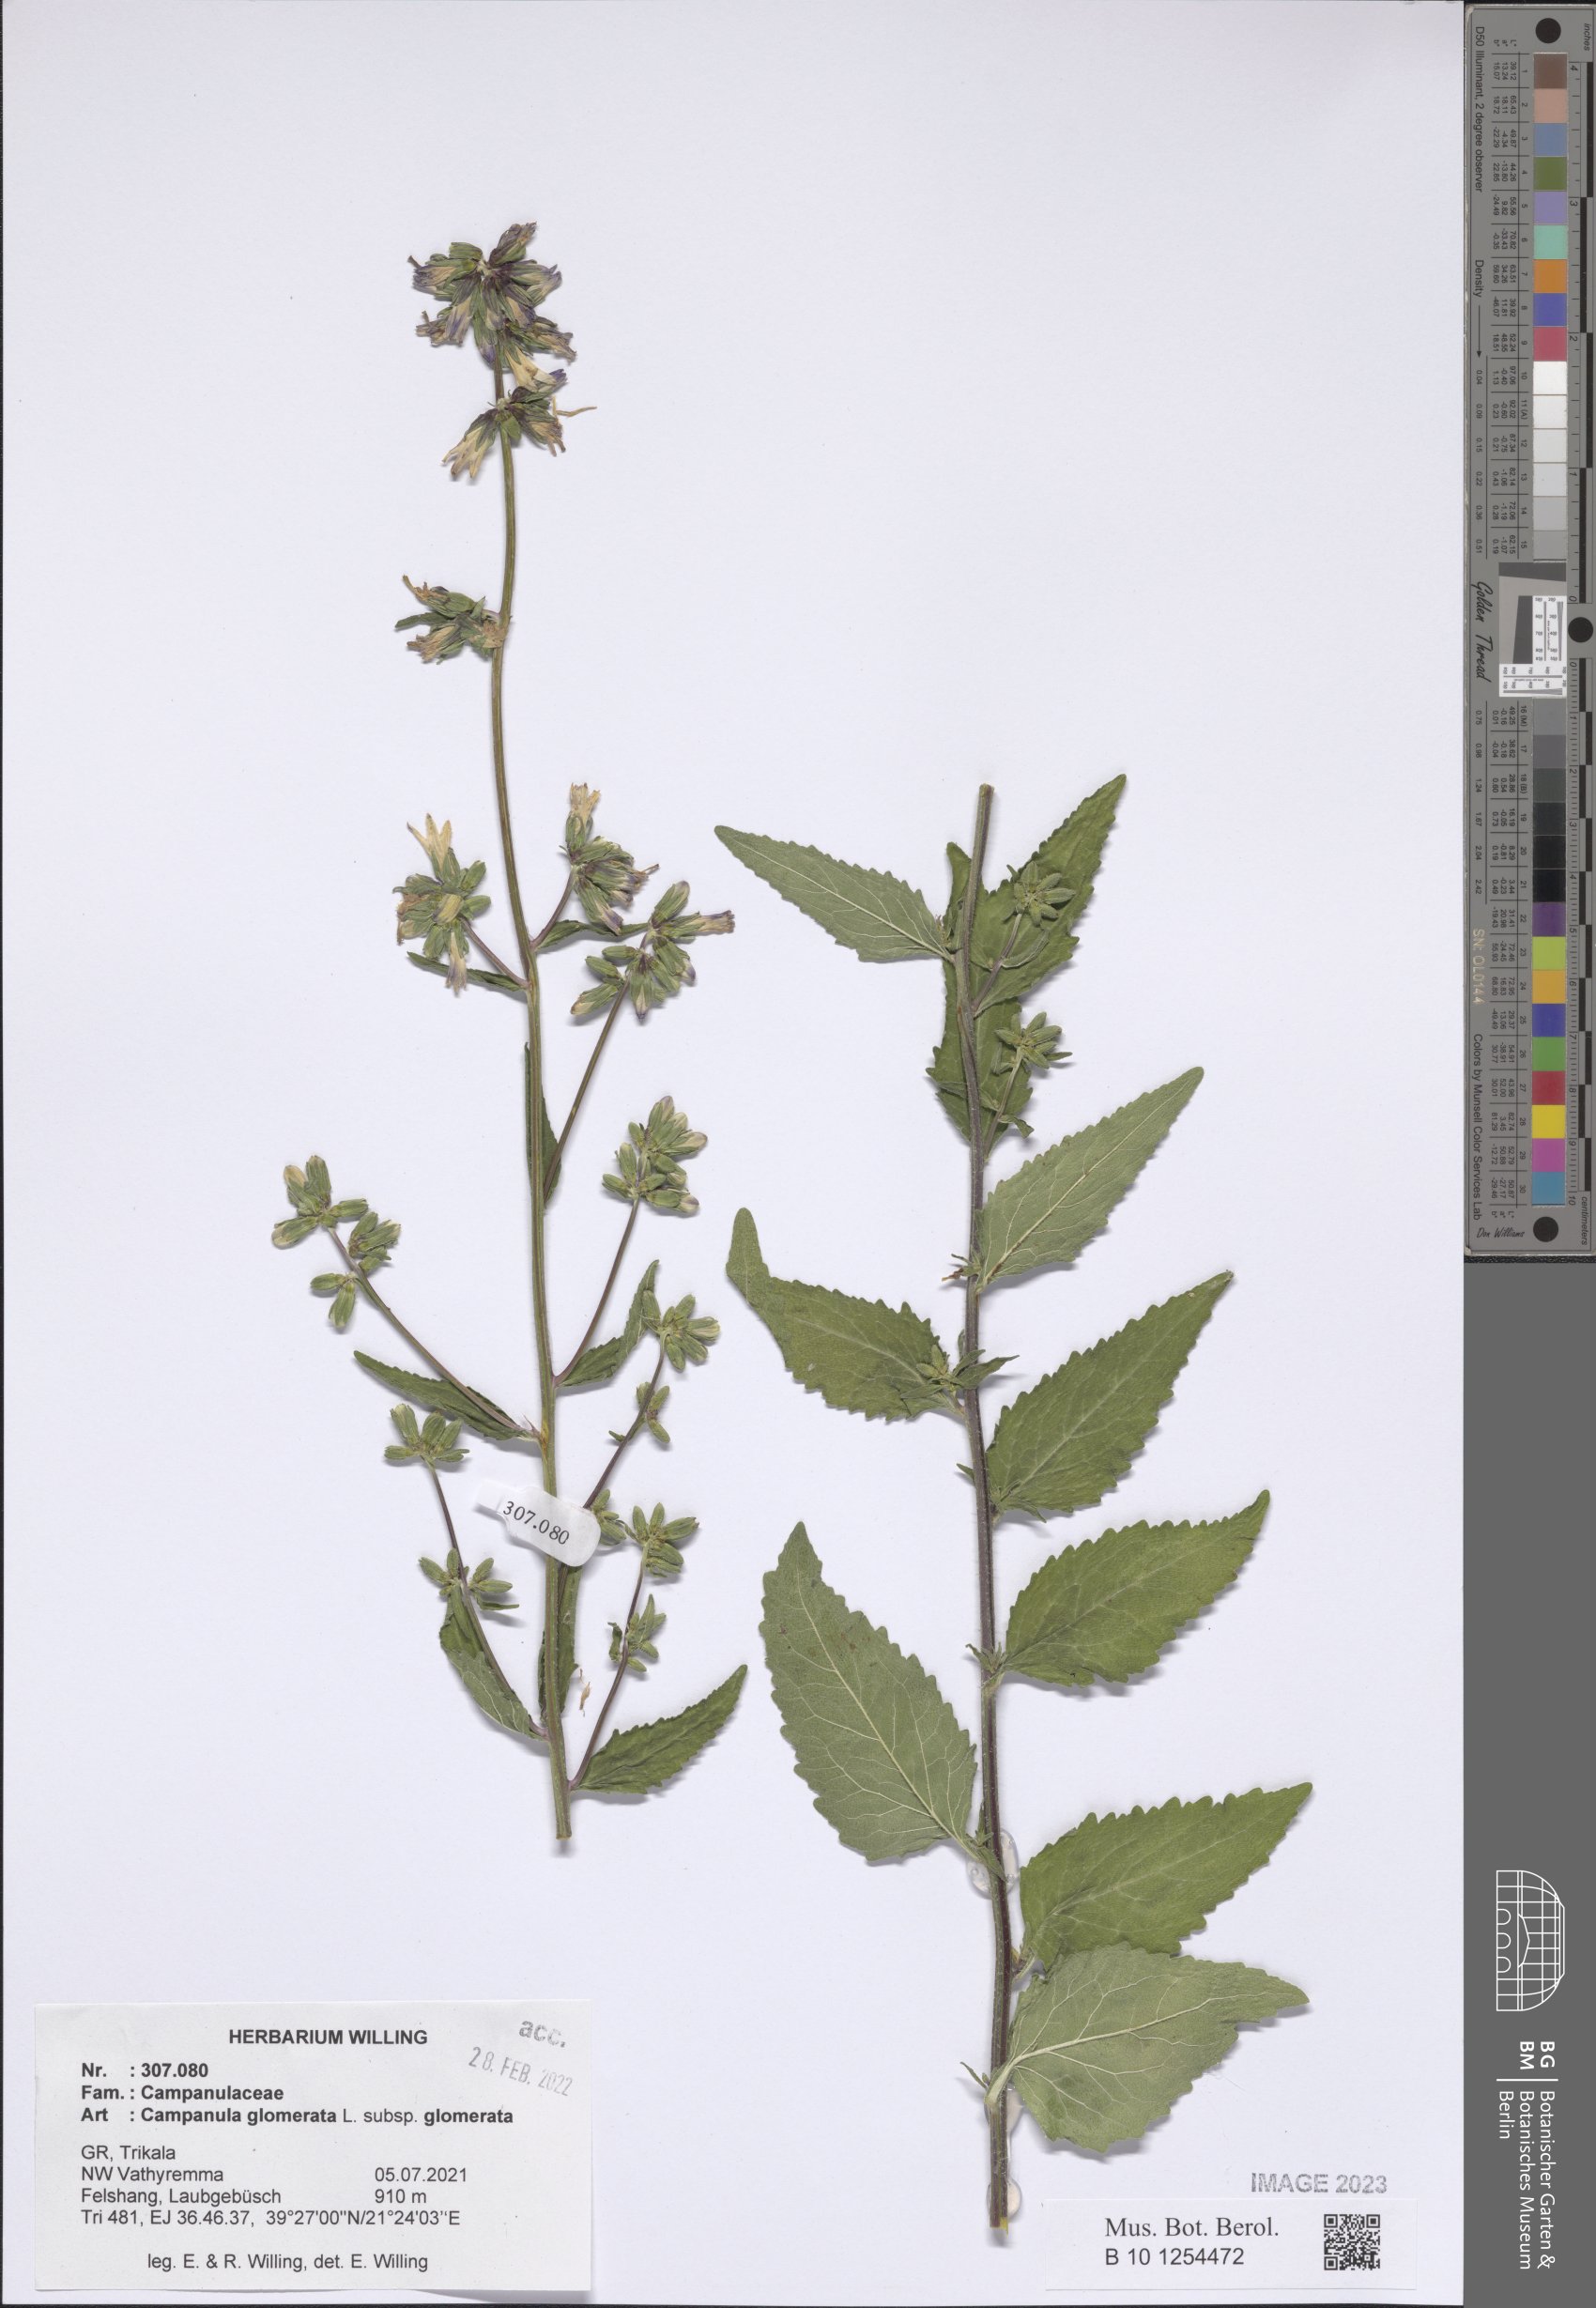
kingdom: Plantae
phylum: Tracheophyta
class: Magnoliopsida
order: Asterales
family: Campanulaceae
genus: Campanula
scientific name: Campanula glomerata
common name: Clustered bellflower
